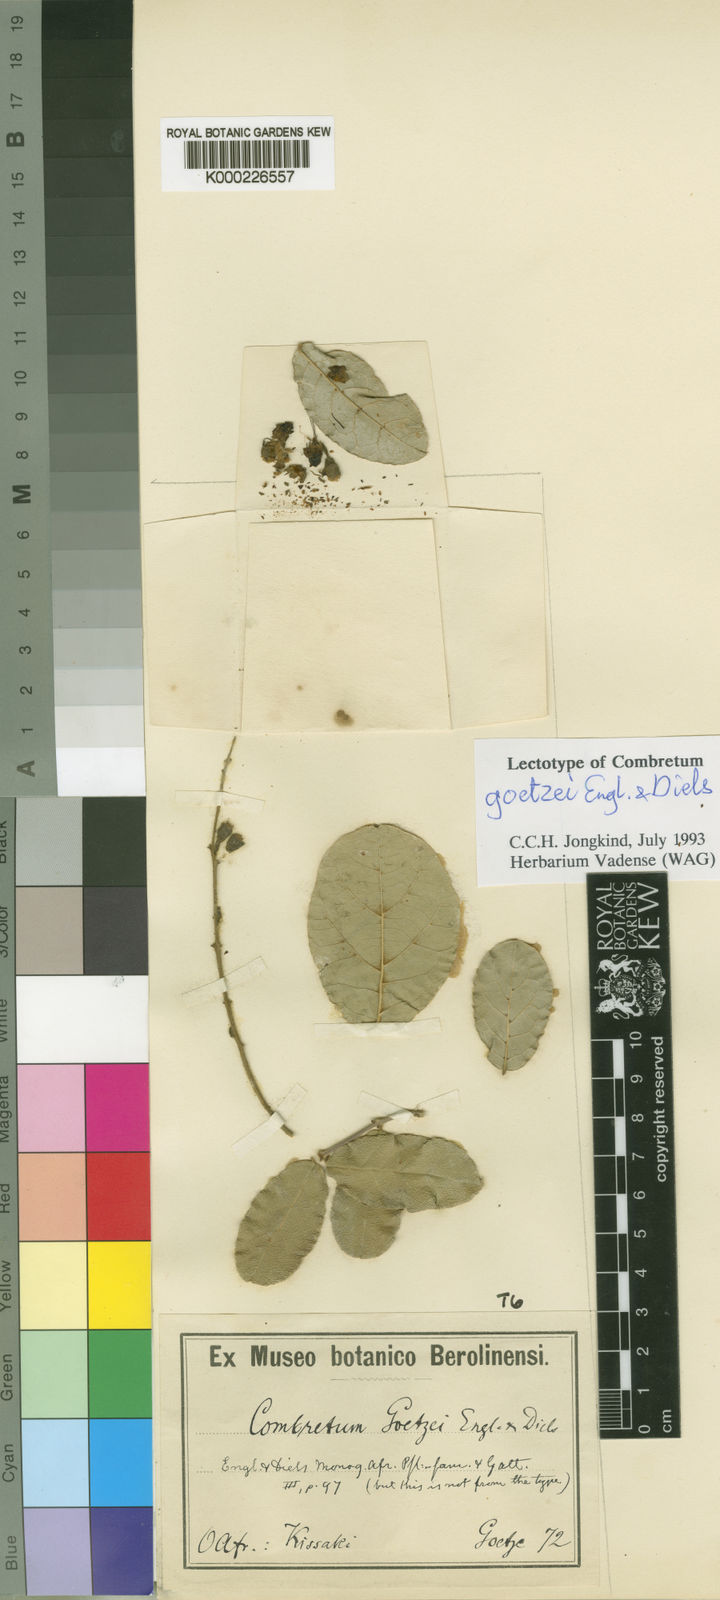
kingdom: Plantae
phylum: Tracheophyta
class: Magnoliopsida
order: Myrtales
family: Combretaceae
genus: Combretum
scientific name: Combretum goetzei
